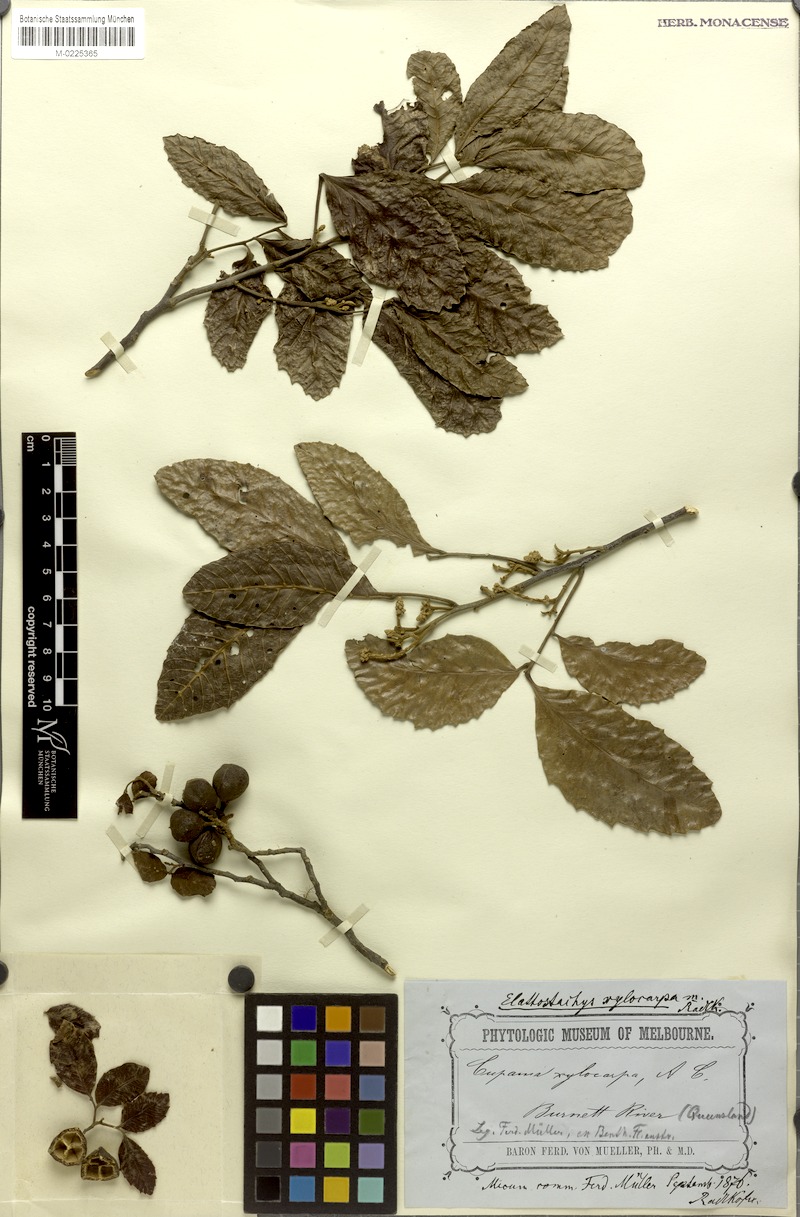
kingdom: Plantae
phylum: Tracheophyta
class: Magnoliopsida
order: Sapindales
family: Sapindaceae
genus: Elattostachys
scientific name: Elattostachys xylocarpa
